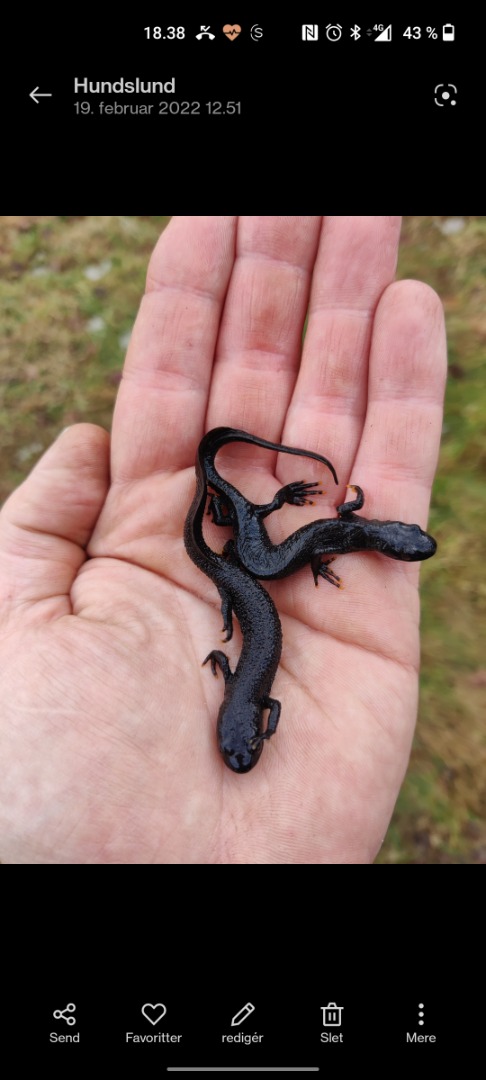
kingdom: Animalia
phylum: Chordata
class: Amphibia
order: Caudata
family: Salamandridae
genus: Triturus
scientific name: Triturus cristatus
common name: Stor vandsalamander
